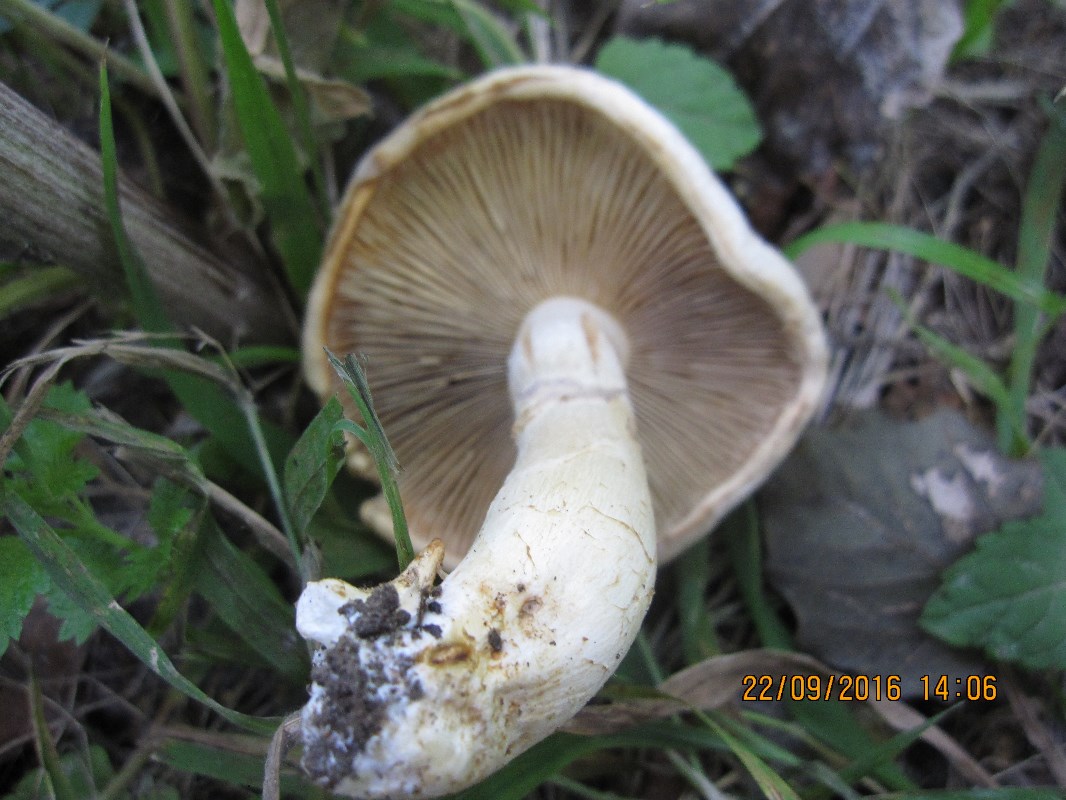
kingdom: Fungi
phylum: Basidiomycota
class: Agaricomycetes
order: Agaricales
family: Cortinariaceae
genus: Phlegmacium
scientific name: Phlegmacium argutum
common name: hvidlig slørhat
